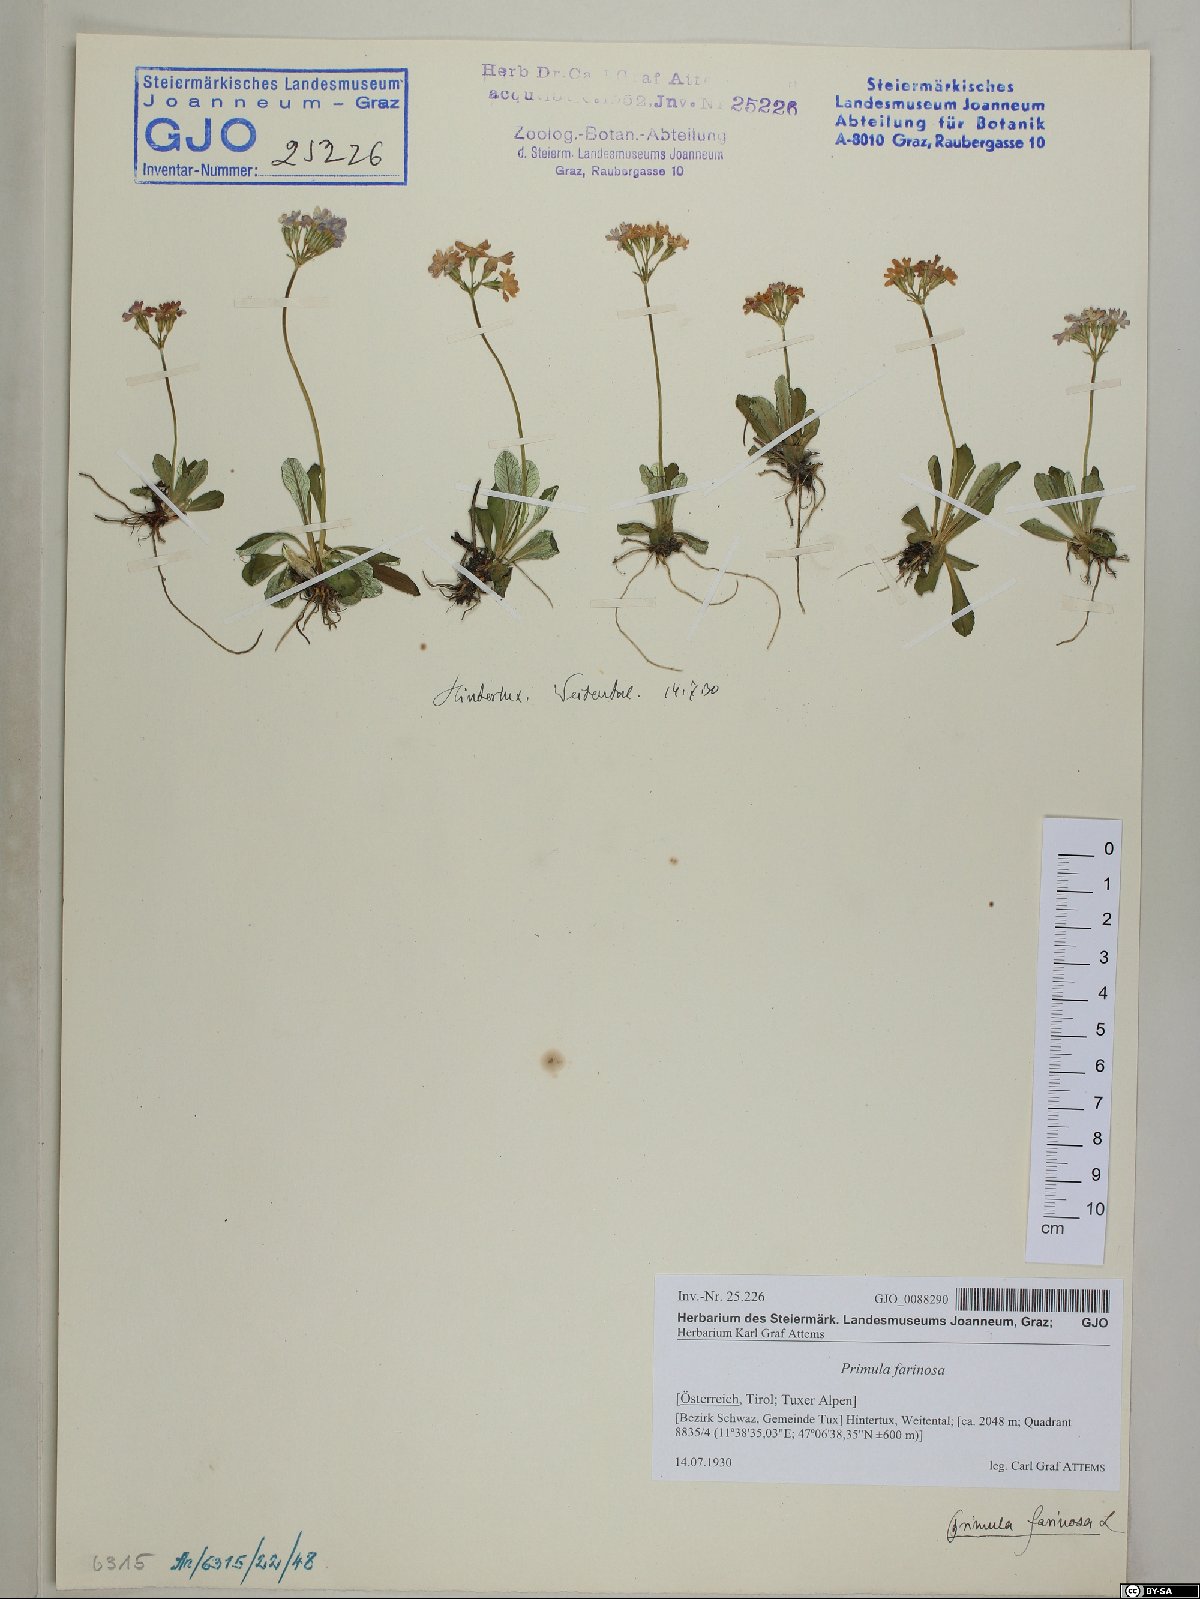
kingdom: Plantae
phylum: Tracheophyta
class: Magnoliopsida
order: Ericales
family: Primulaceae
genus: Primula
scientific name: Primula farinosa
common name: Bird's-eye primrose
